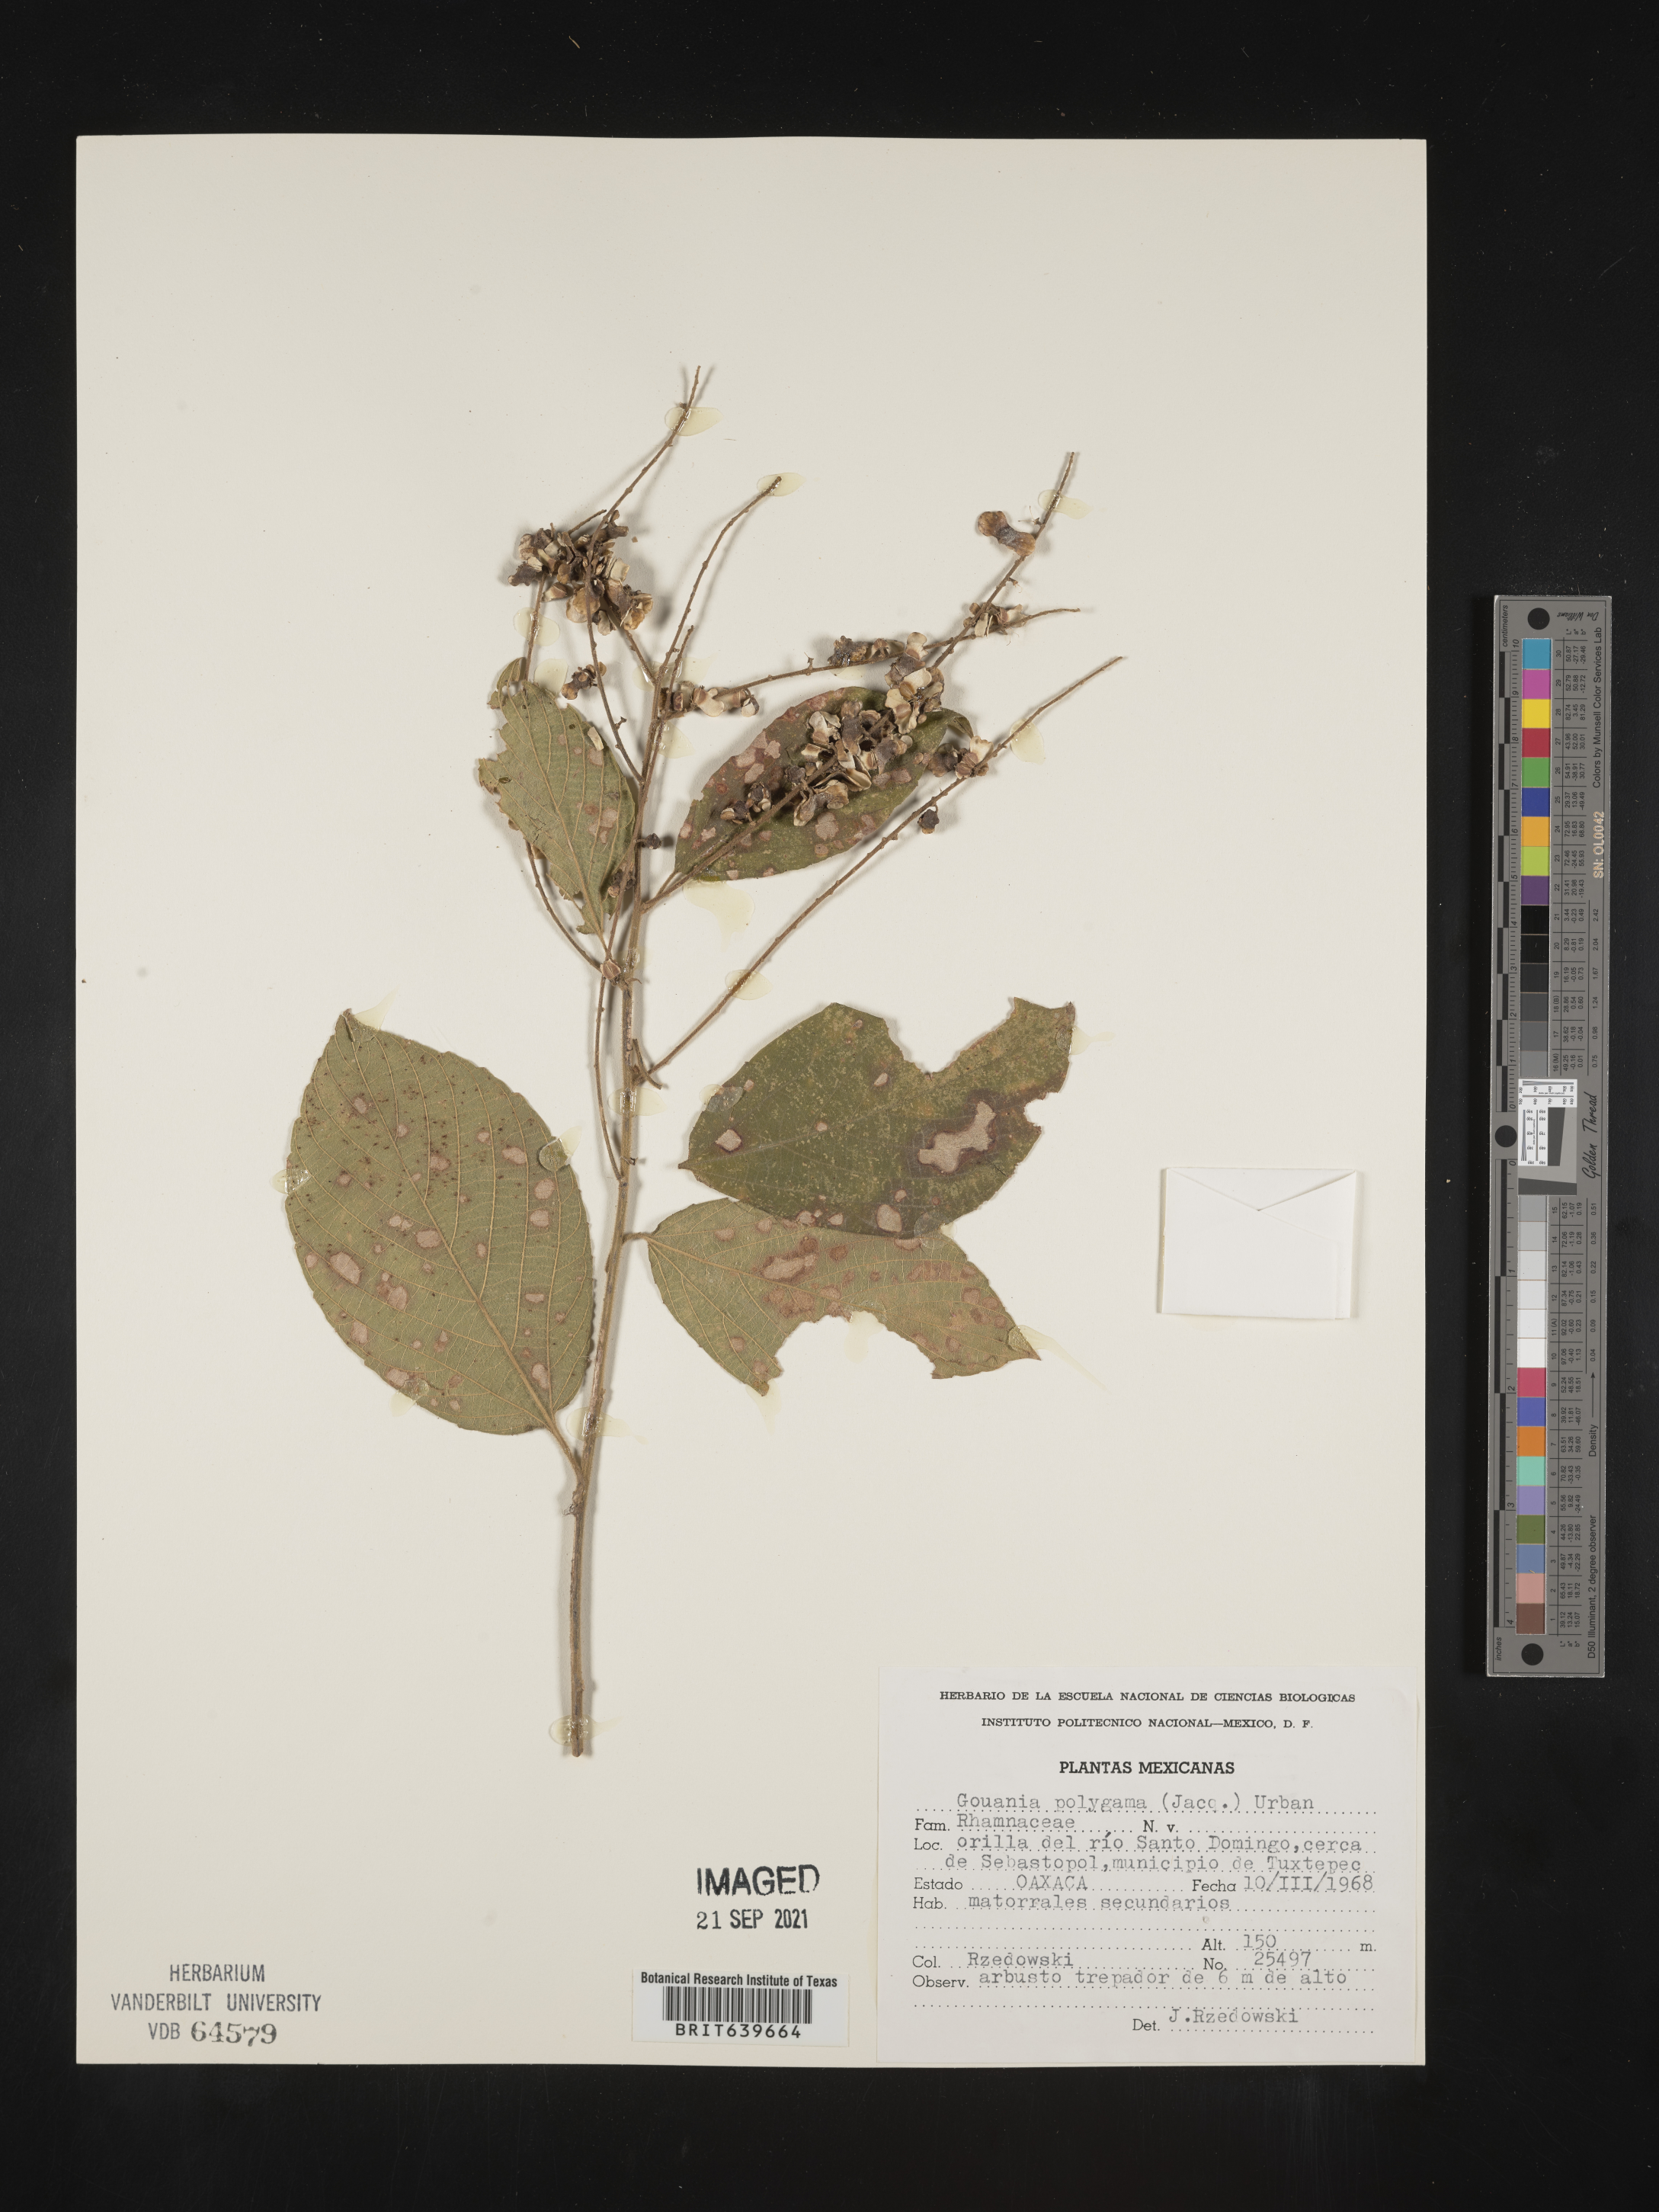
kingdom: Plantae
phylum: Tracheophyta
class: Magnoliopsida
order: Rosales
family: Rhamnaceae
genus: Gouania
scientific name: Gouania
